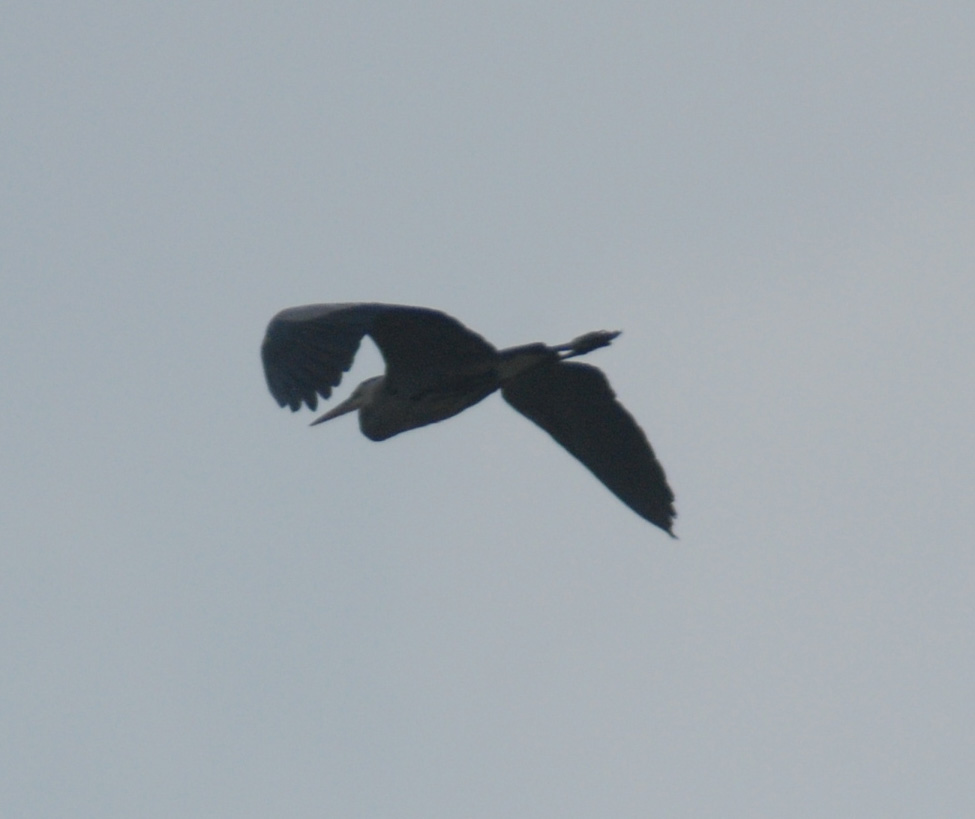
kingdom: Animalia
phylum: Chordata
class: Aves
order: Pelecaniformes
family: Ardeidae
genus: Ardea
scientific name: Ardea herodias
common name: Great blue heron
